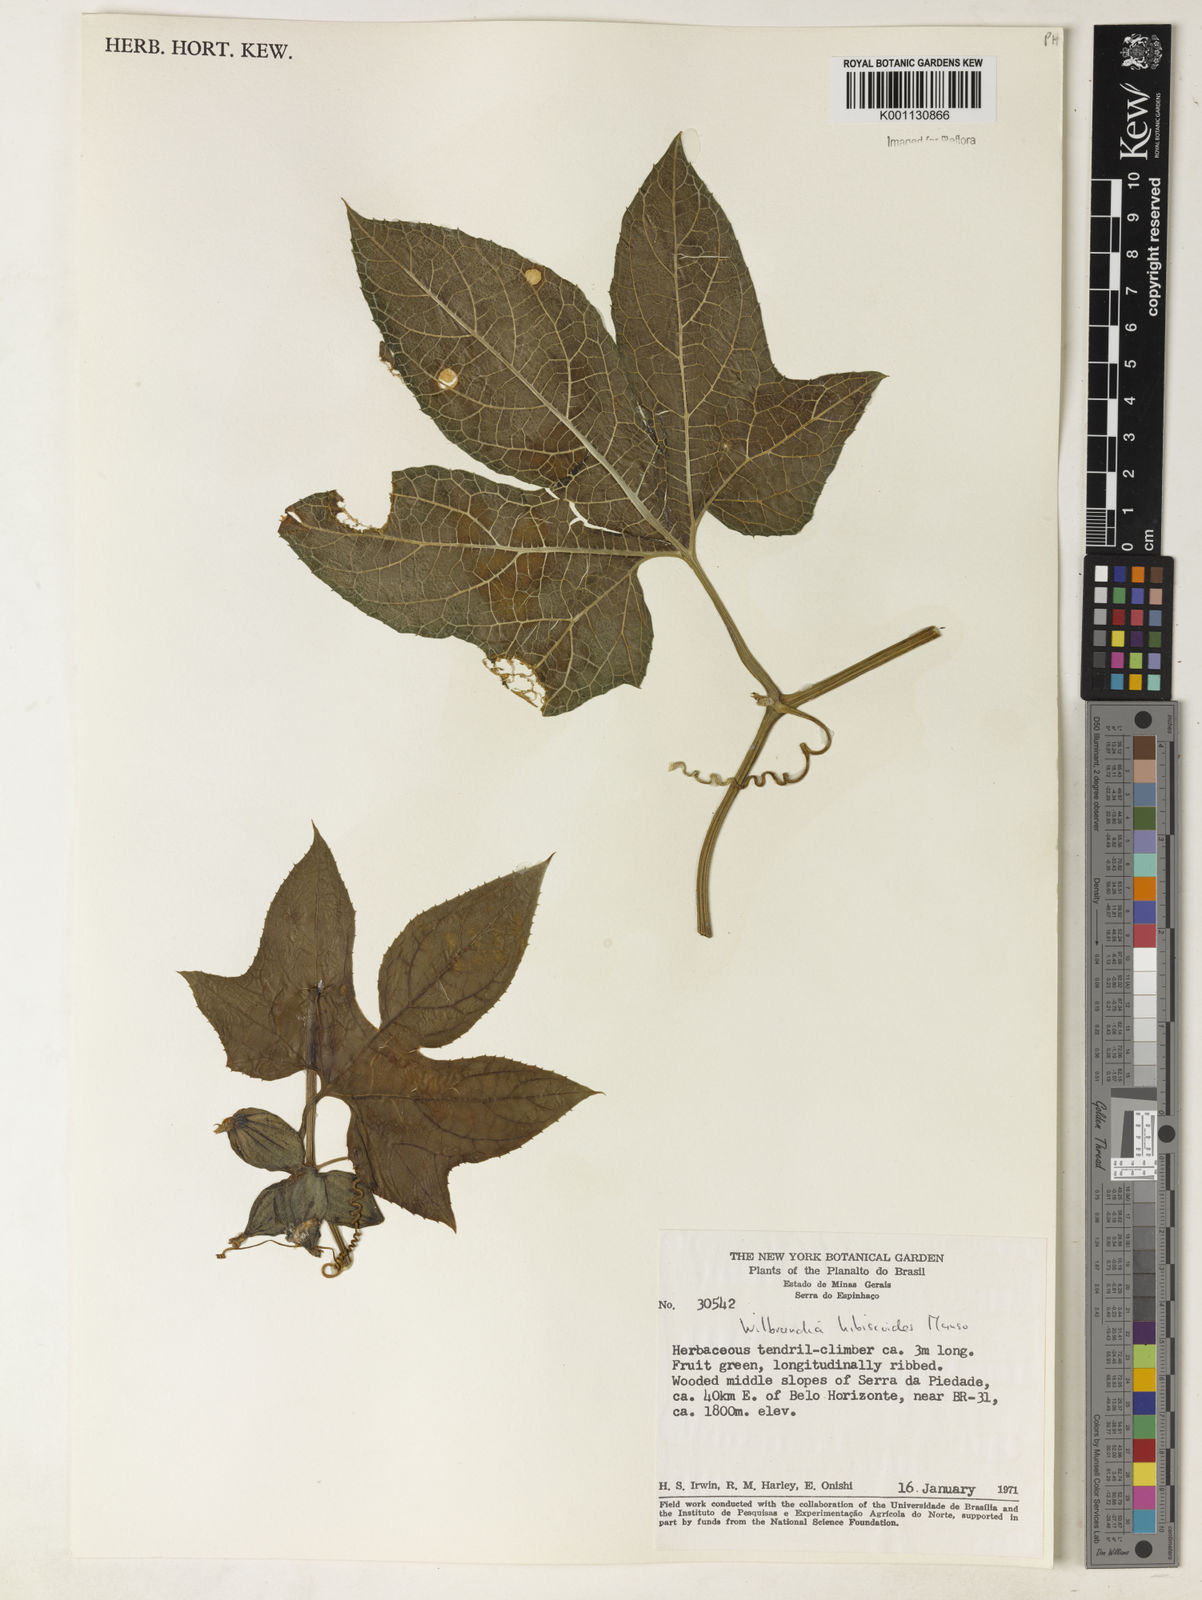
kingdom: Plantae
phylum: Tracheophyta
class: Magnoliopsida
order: Cucurbitales
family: Cucurbitaceae
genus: Wilbrandia
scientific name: Wilbrandia hibiscoides
